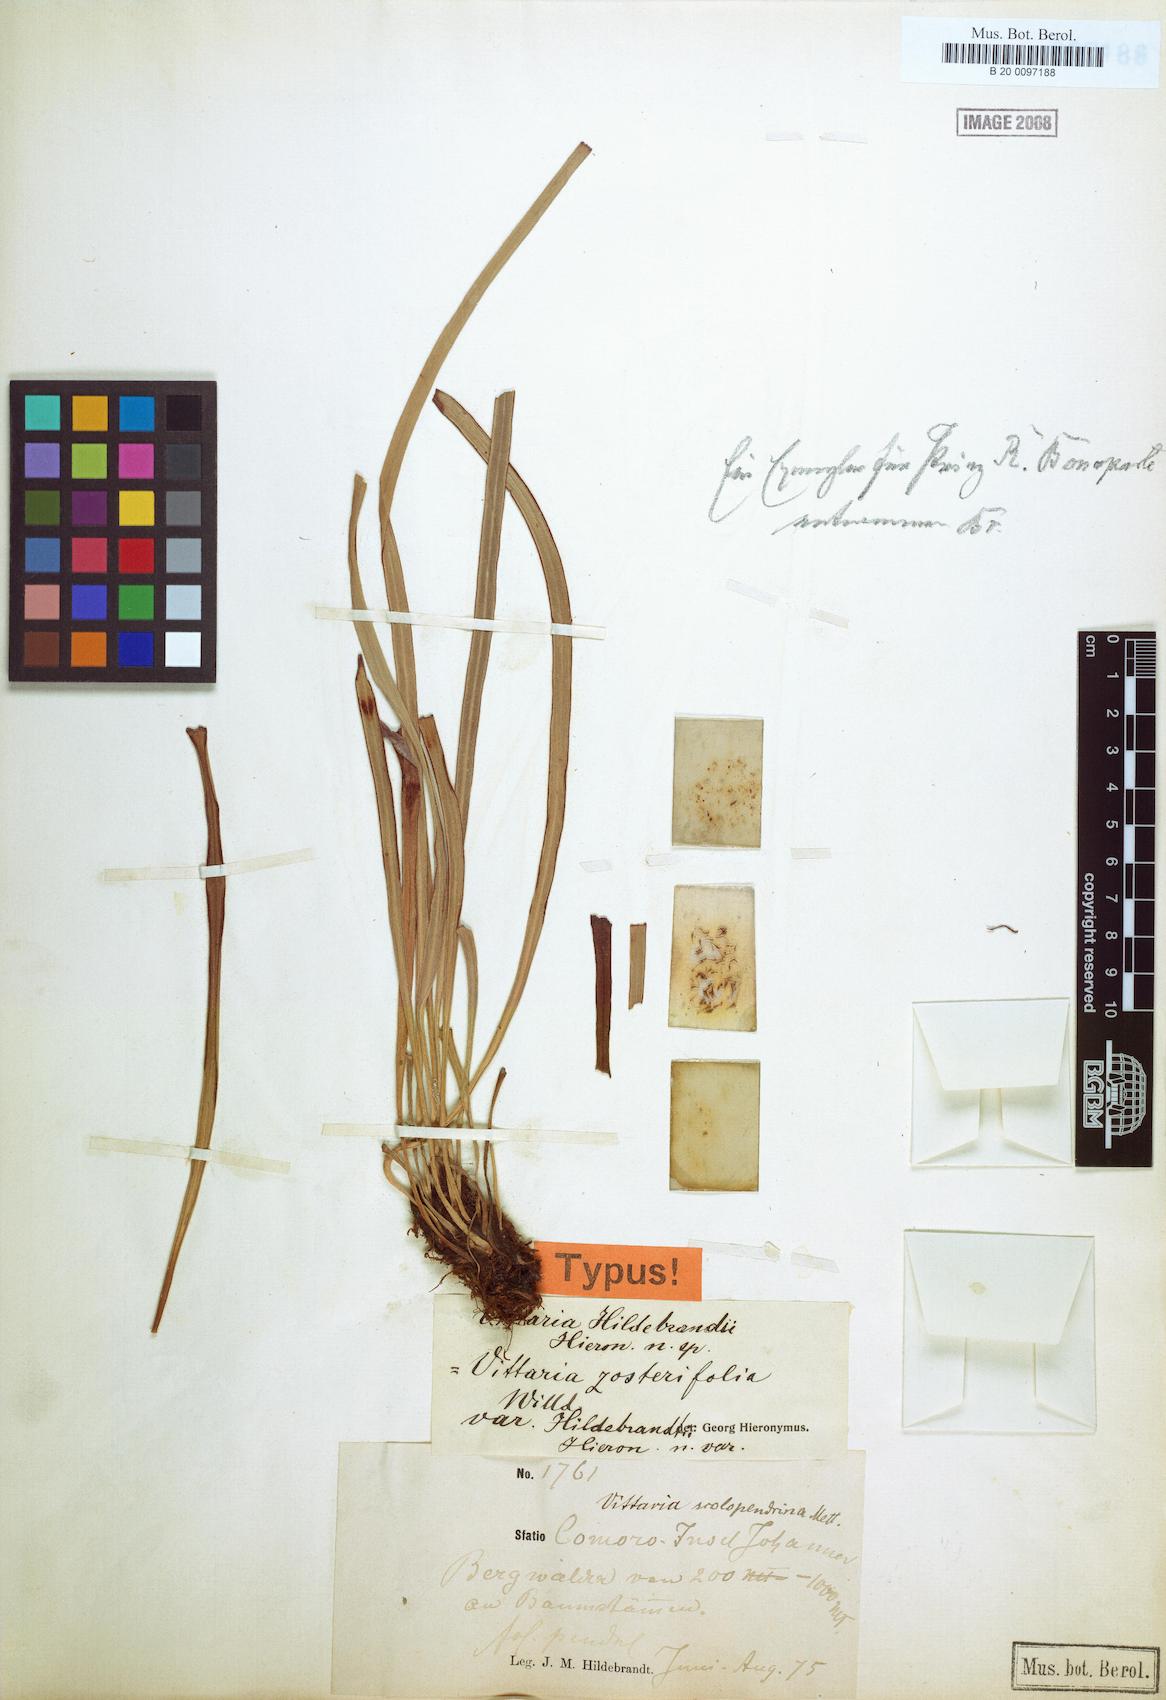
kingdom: Plantae
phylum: Tracheophyta
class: Polypodiopsida
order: Polypodiales
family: Pteridaceae
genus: Haplopteris
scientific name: Haplopteris elongata
